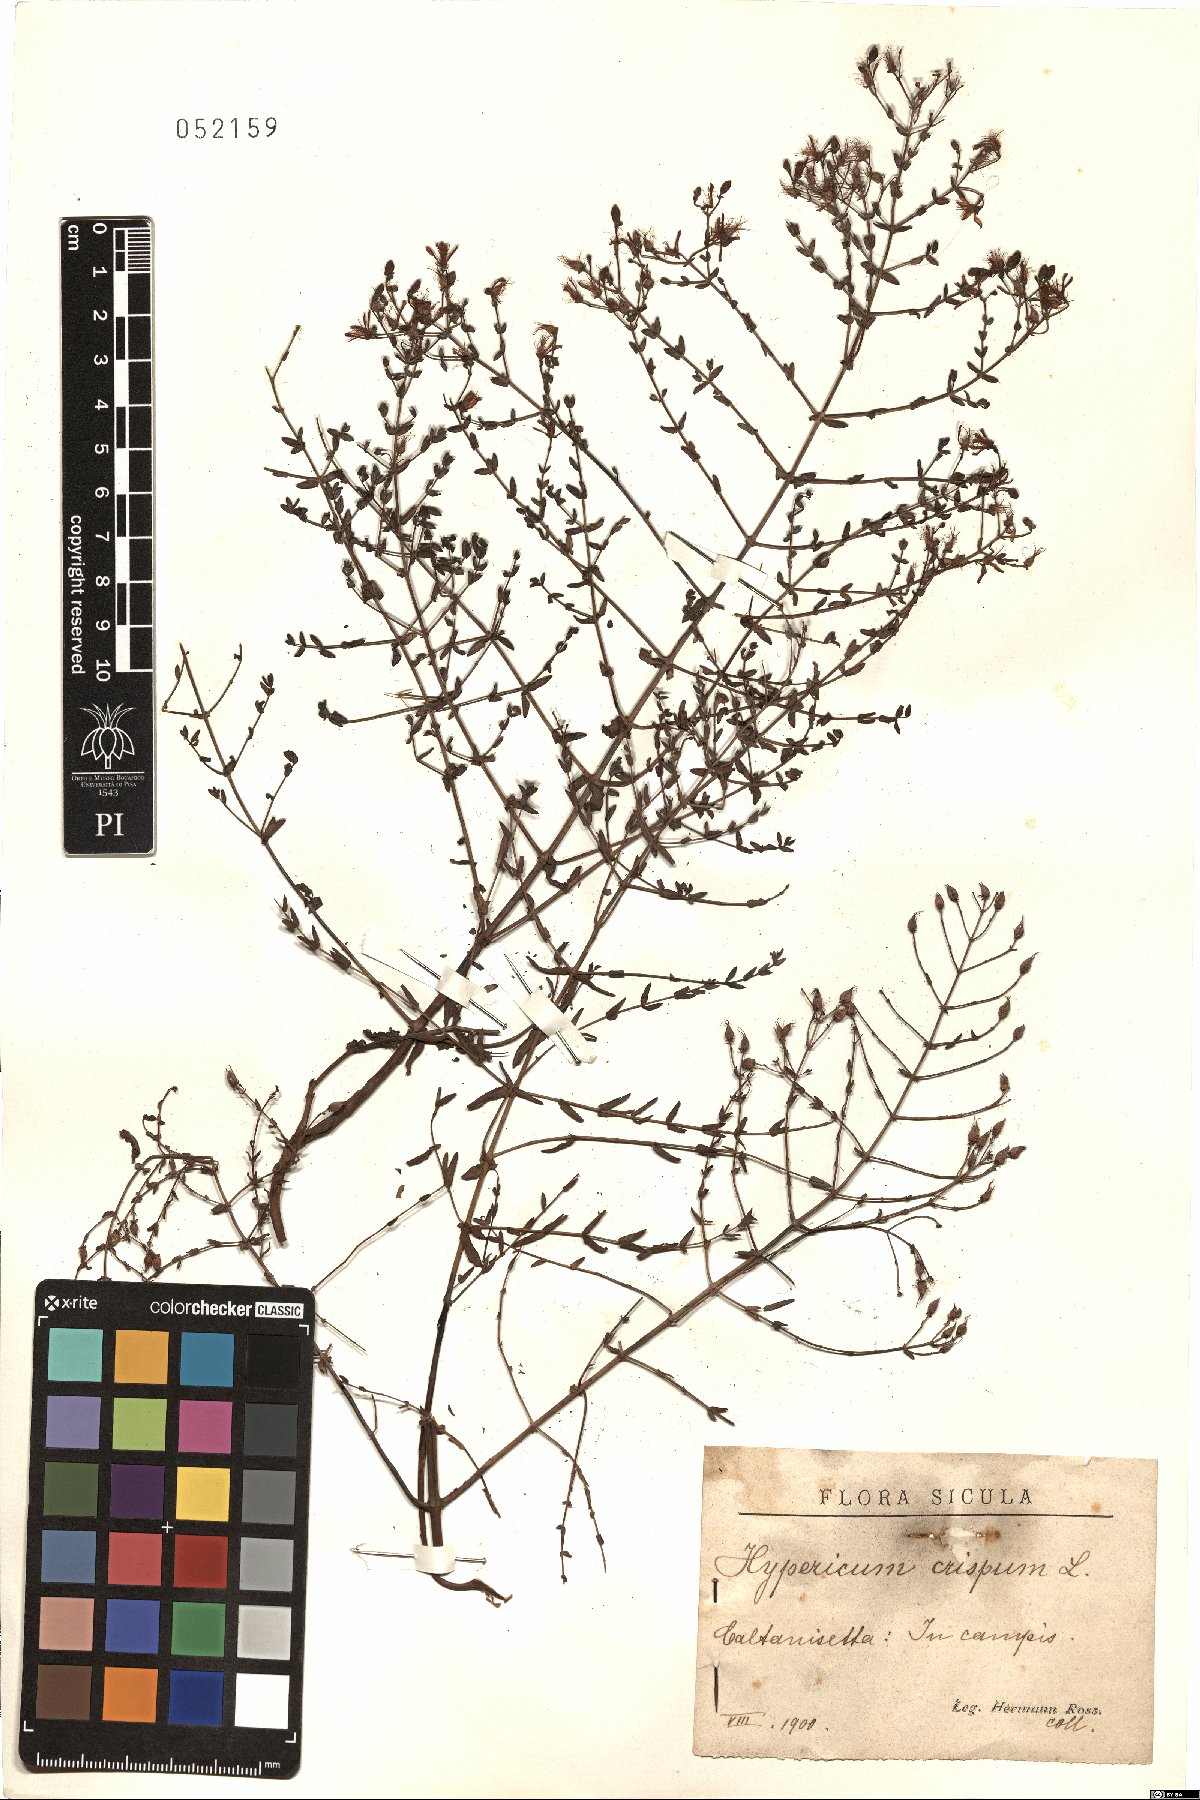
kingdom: Plantae
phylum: Tracheophyta
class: Magnoliopsida
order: Malpighiales
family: Hypericaceae
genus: Hypericum
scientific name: Hypericum triquetrifolium
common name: Tangled hypericum
